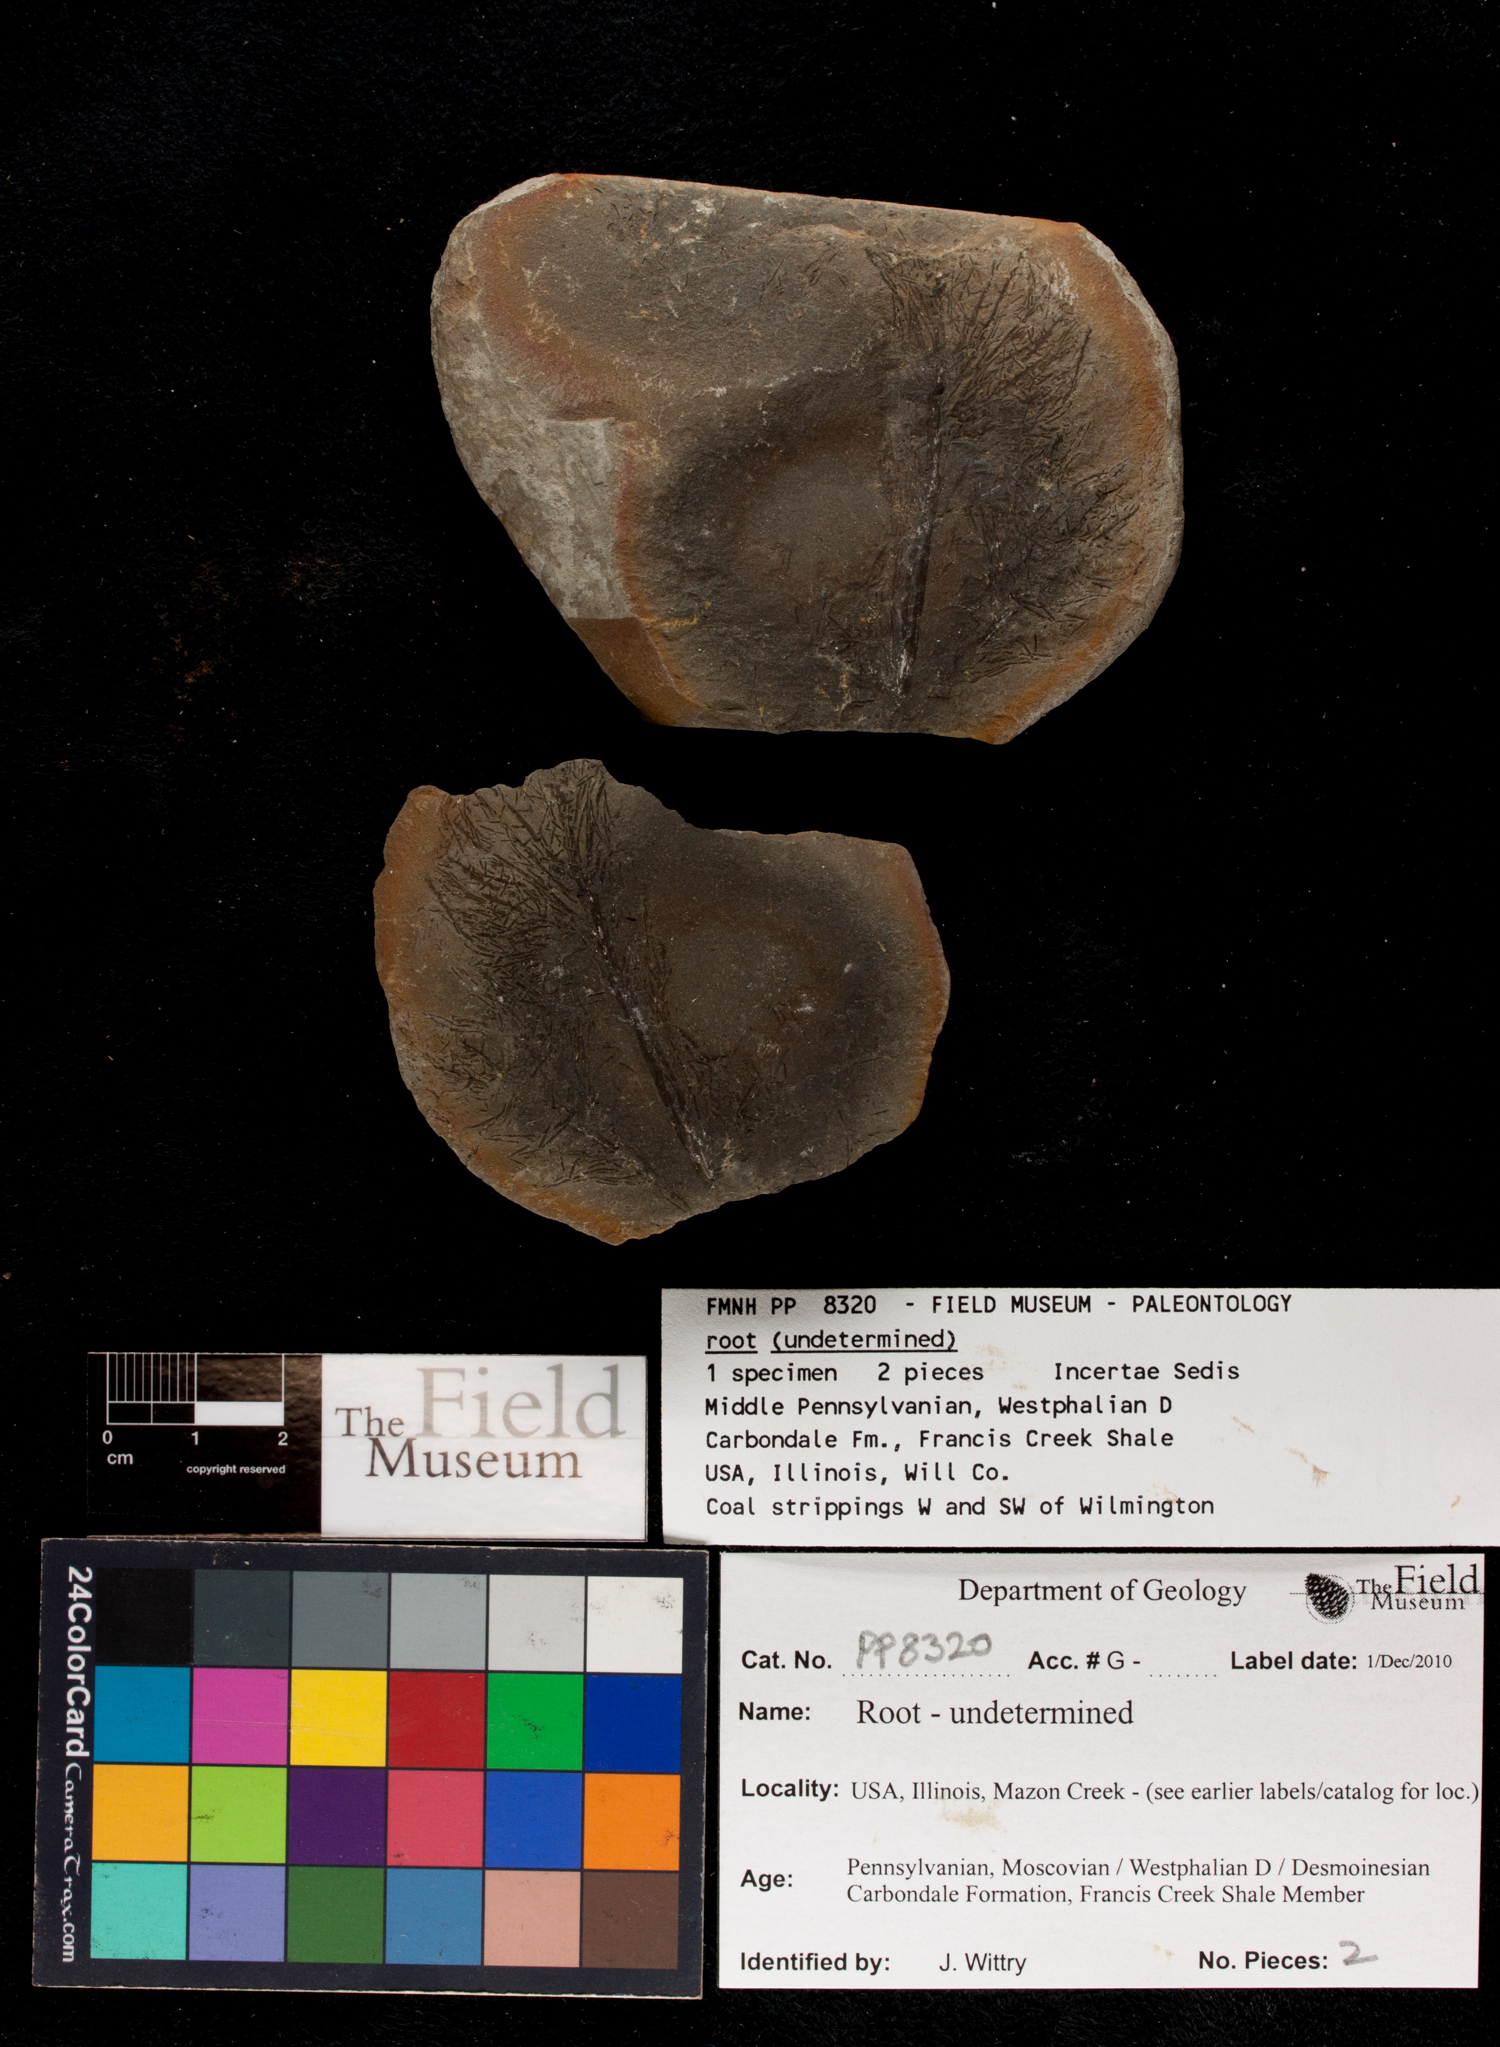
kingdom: Plantae
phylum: Tracheophyta
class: Polypodiopsida
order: Equisetales
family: Calamitaceae
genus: Radicites
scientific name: Radicites
